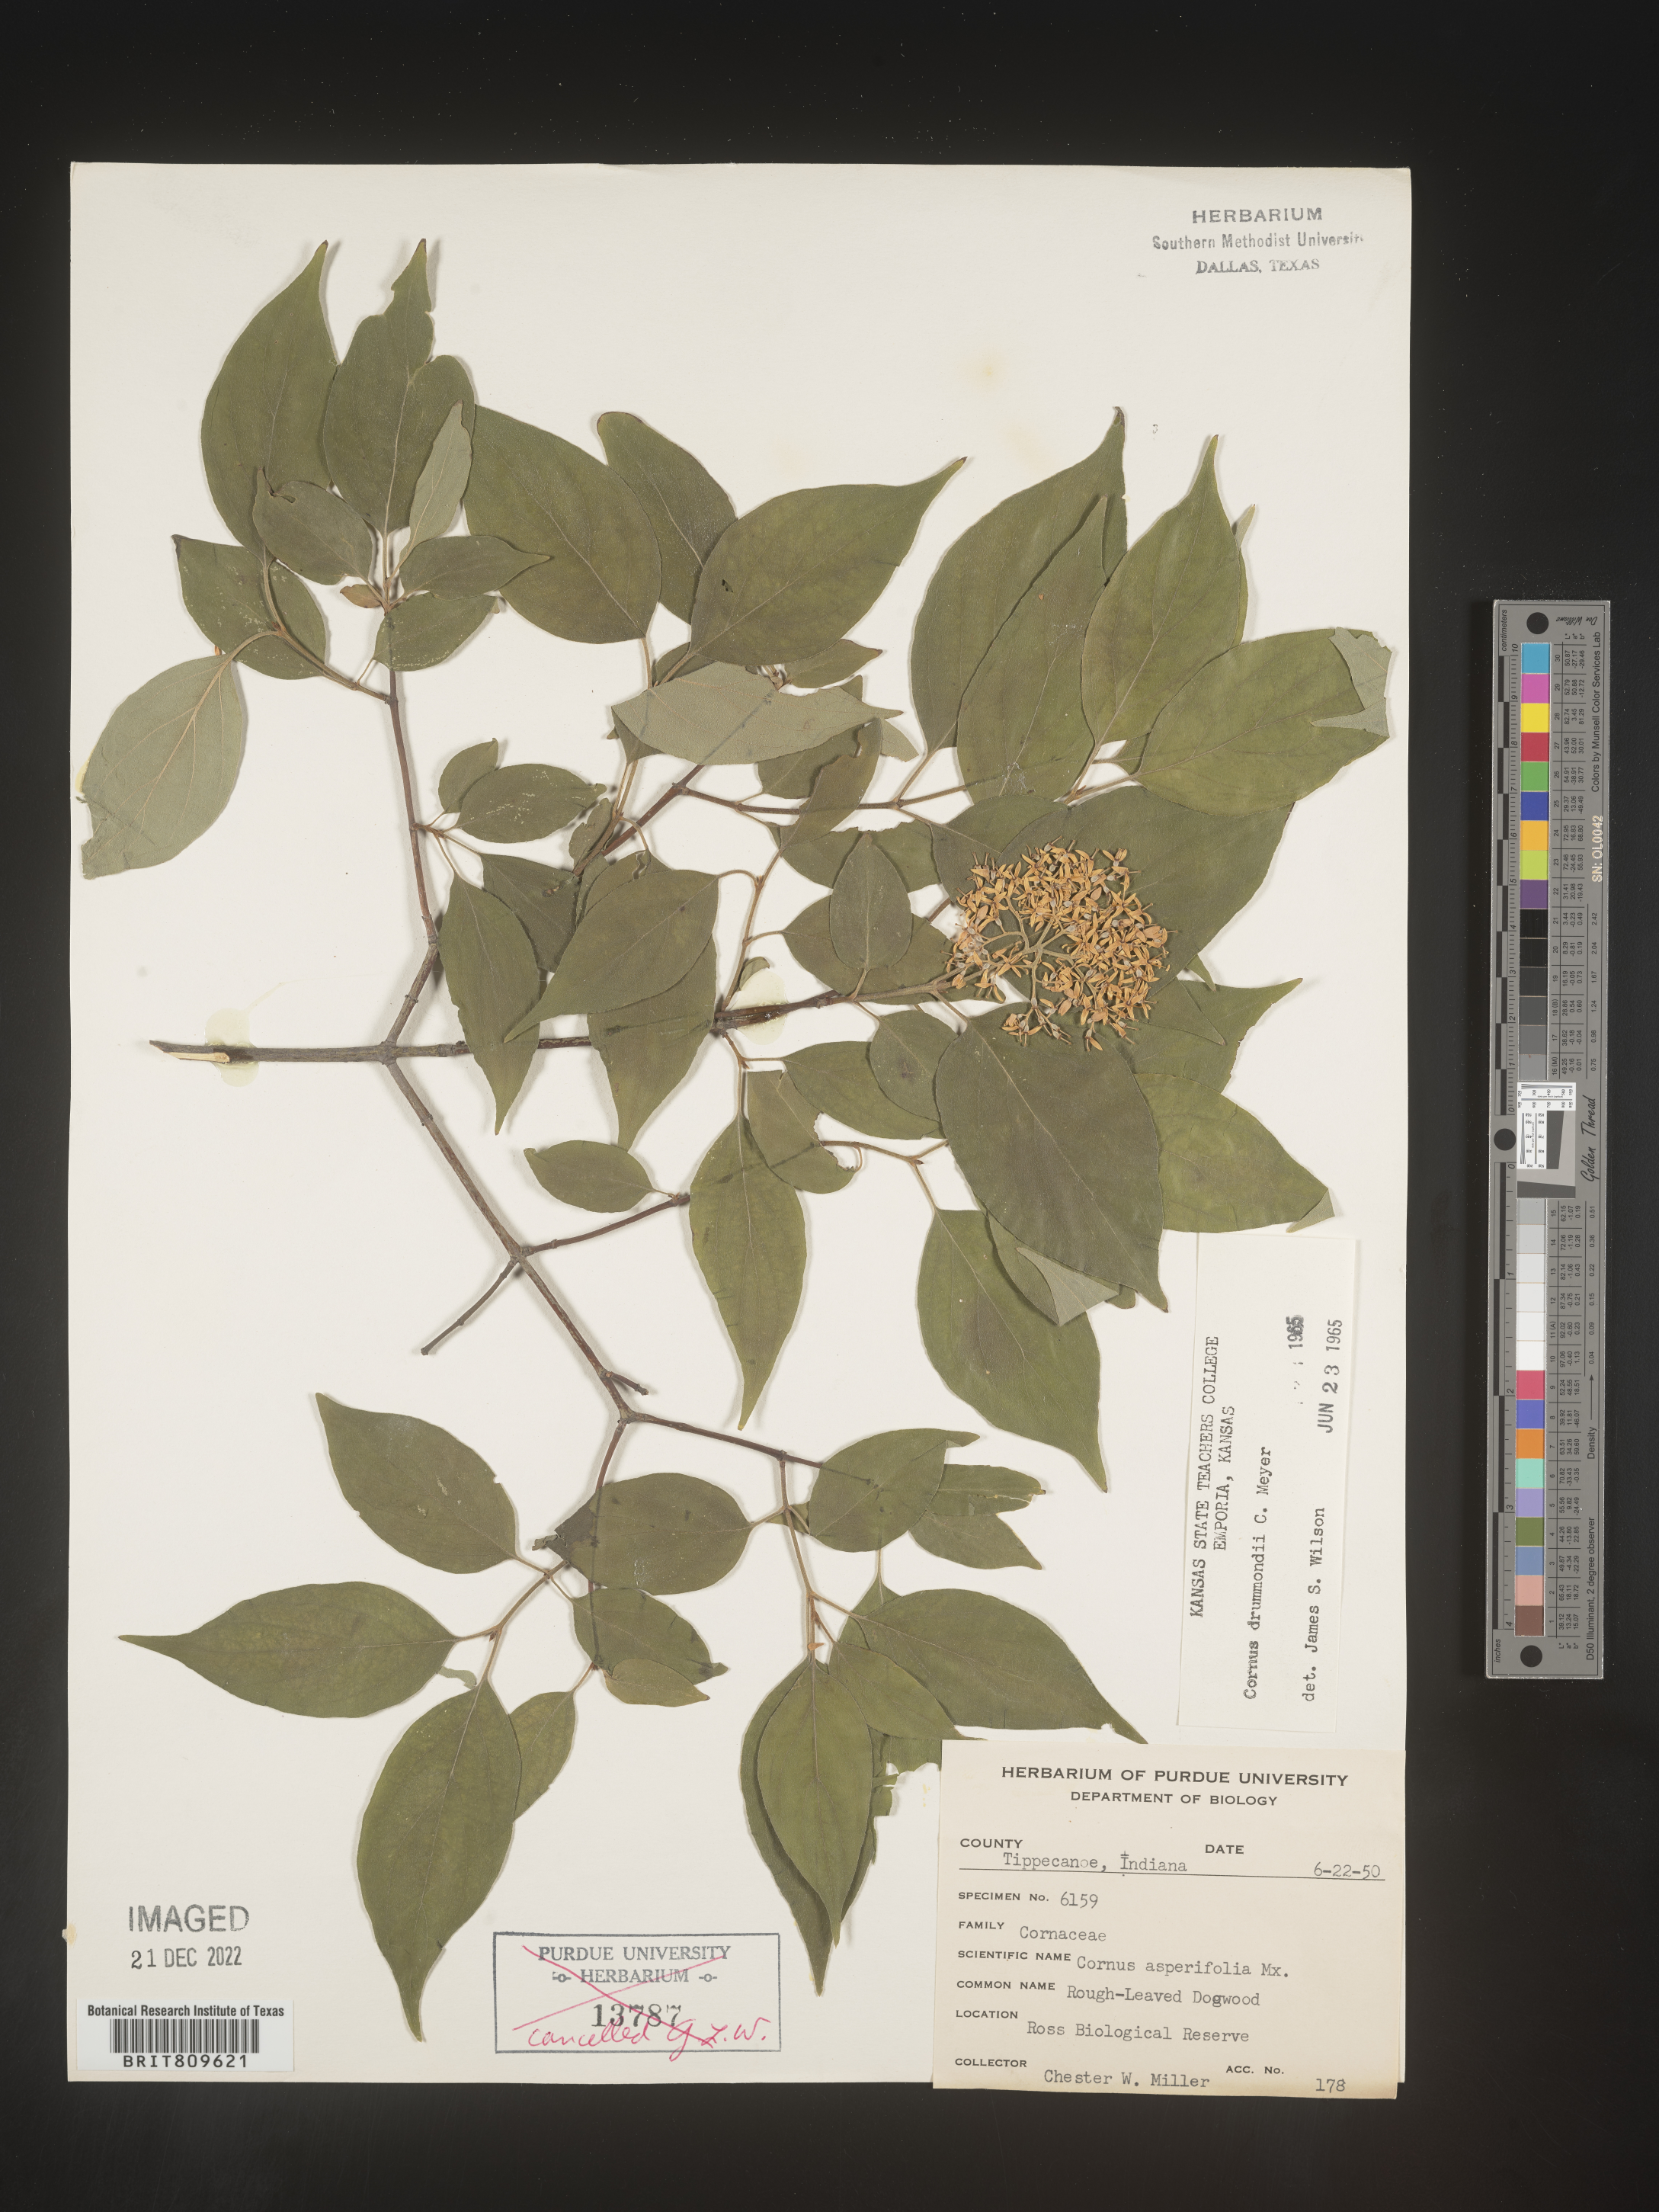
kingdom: Plantae
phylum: Tracheophyta
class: Magnoliopsida
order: Cornales
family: Cornaceae
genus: Cornus
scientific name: Cornus drummondii
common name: Rough-leaf dogwood
